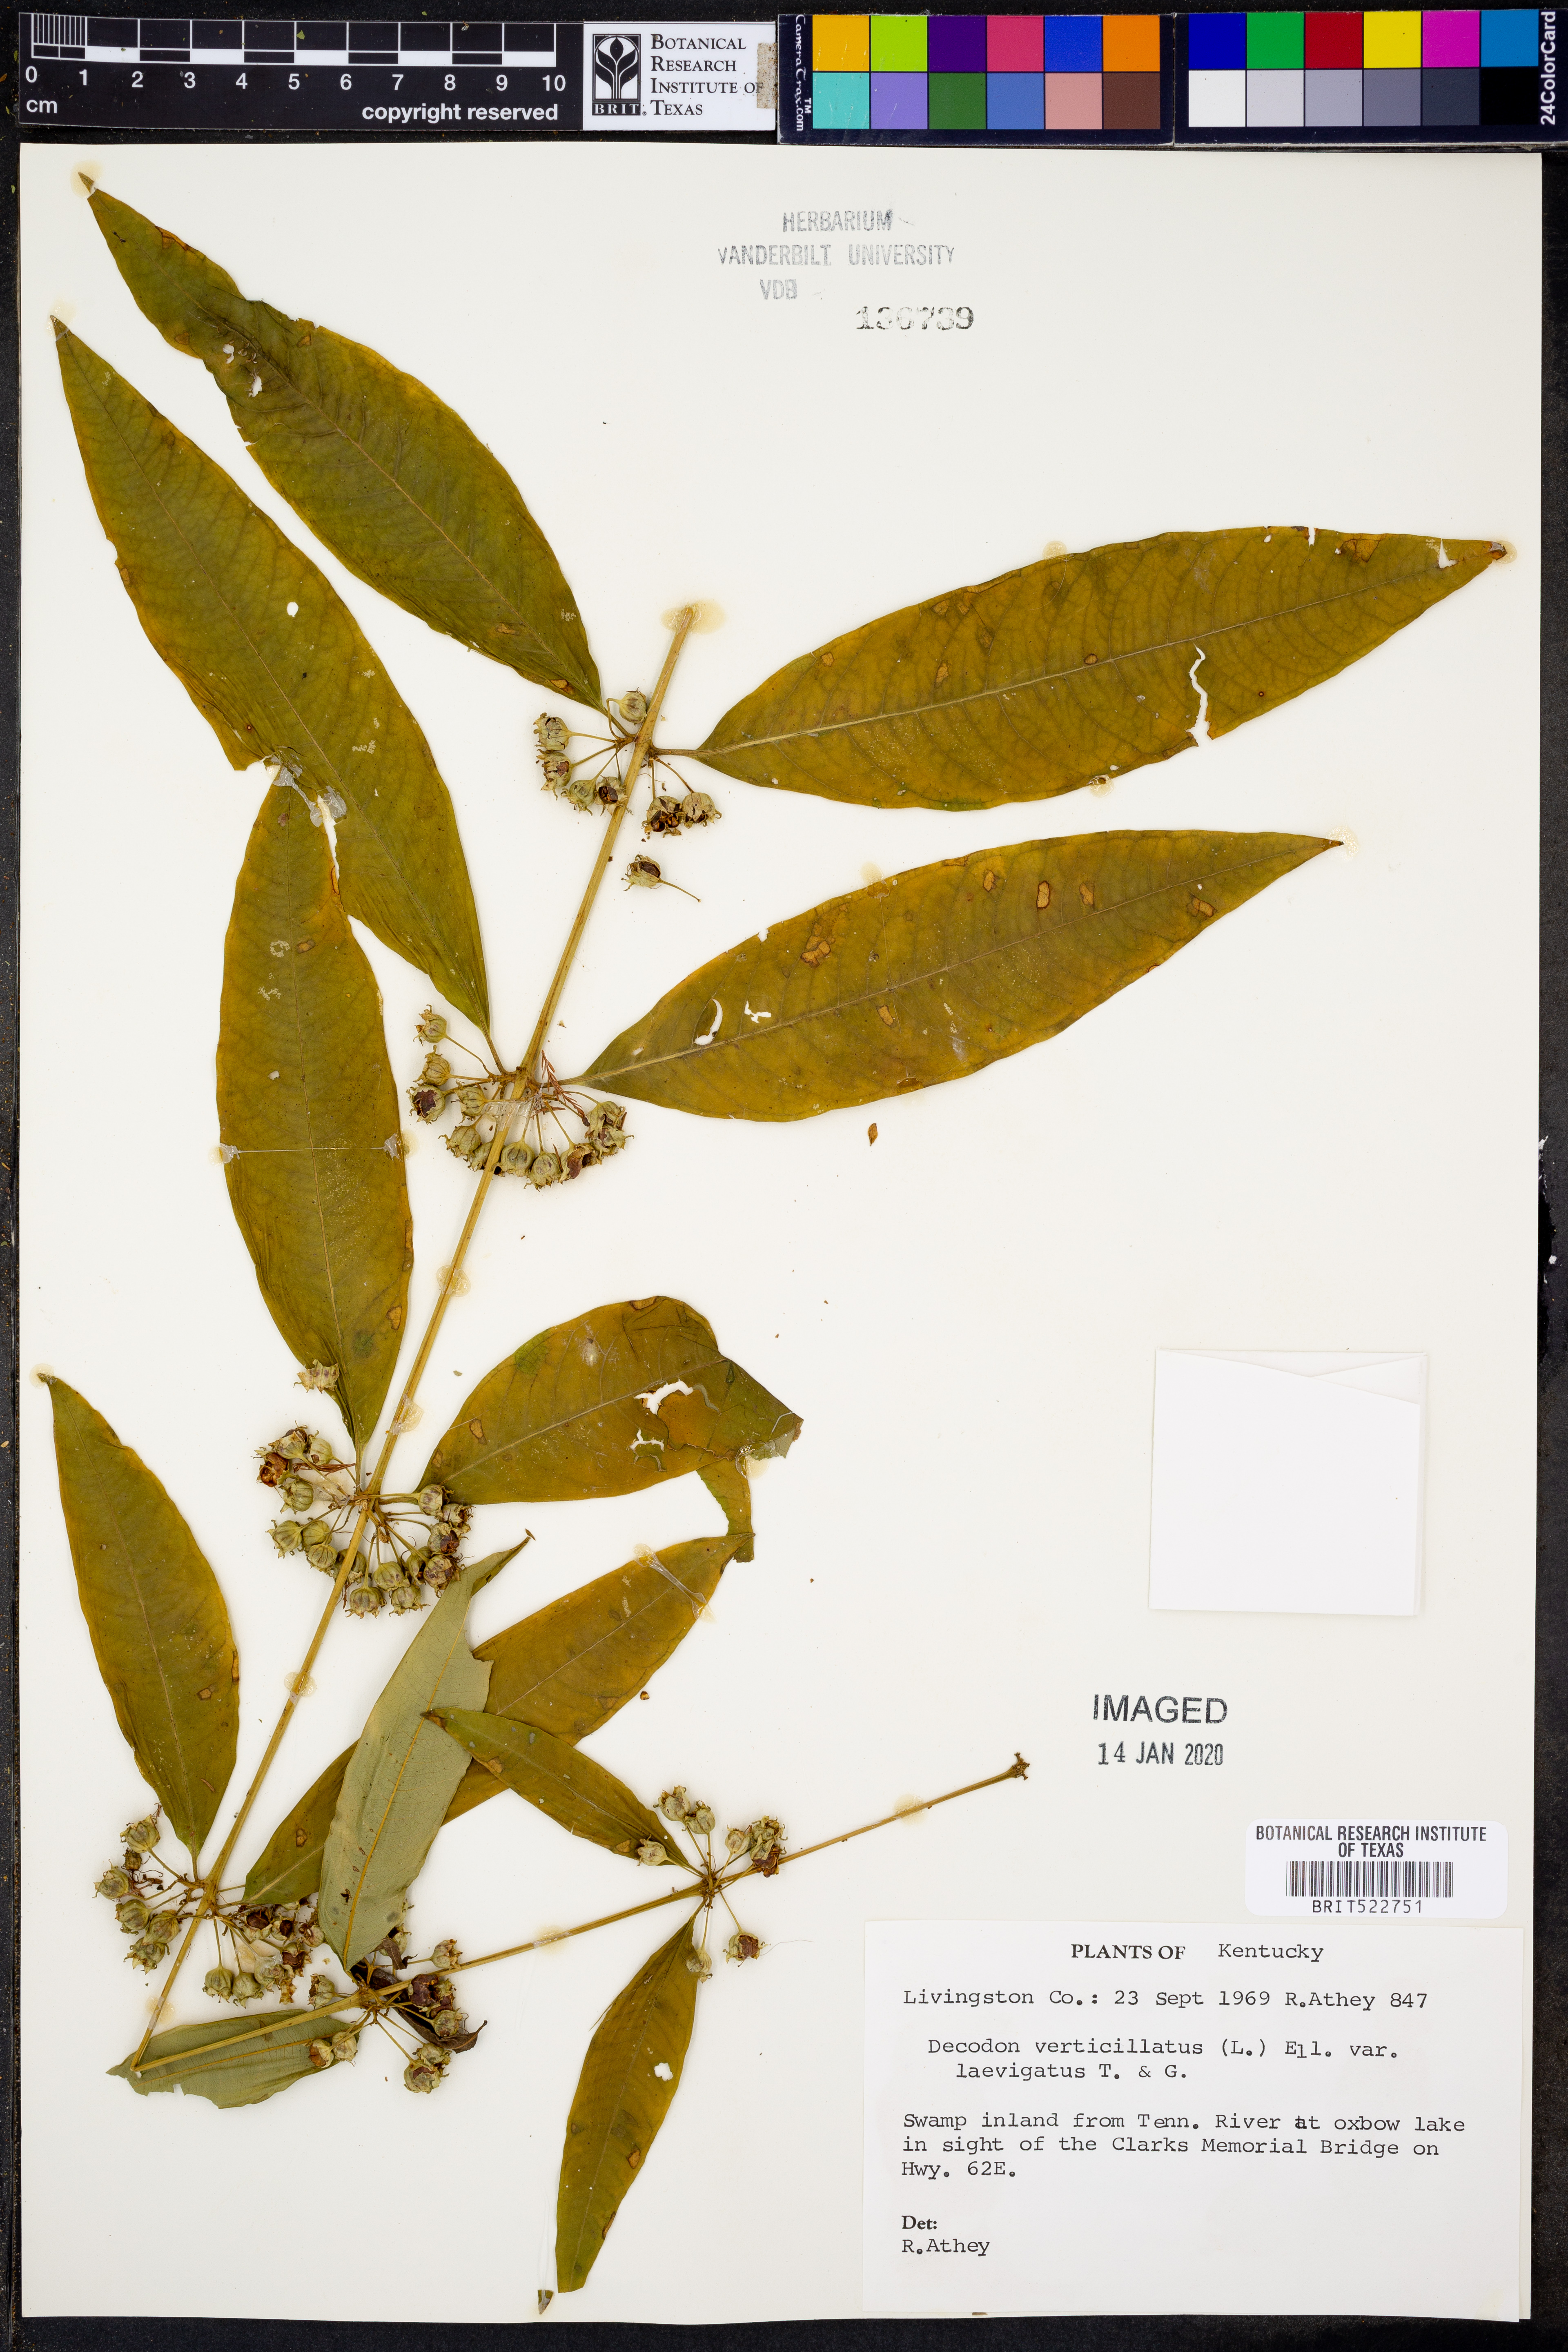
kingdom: Plantae
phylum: Tracheophyta
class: Magnoliopsida
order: Myrtales
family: Lythraceae
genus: Decodon
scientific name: Decodon verticillatus
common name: Hairy swamp loosestrife
